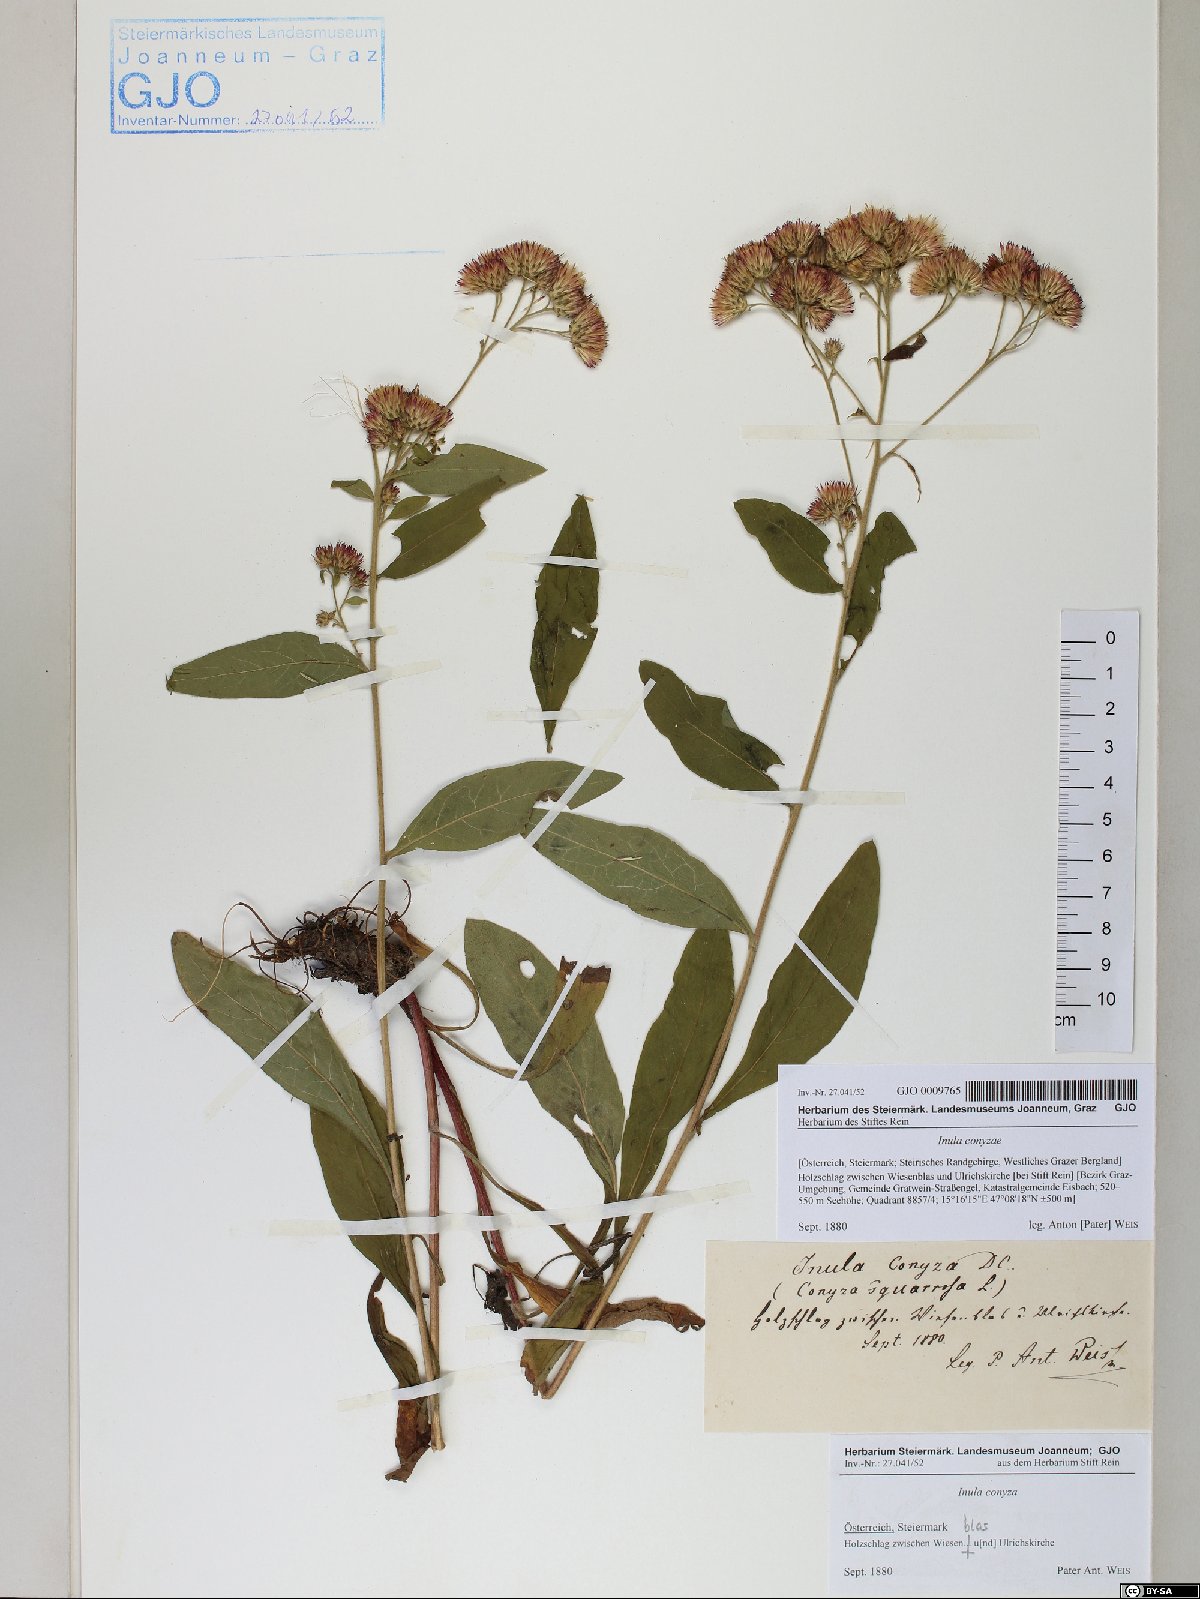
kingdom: Plantae
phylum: Tracheophyta
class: Magnoliopsida
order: Asterales
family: Asteraceae
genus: Pentanema
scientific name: Pentanema squarrosum
